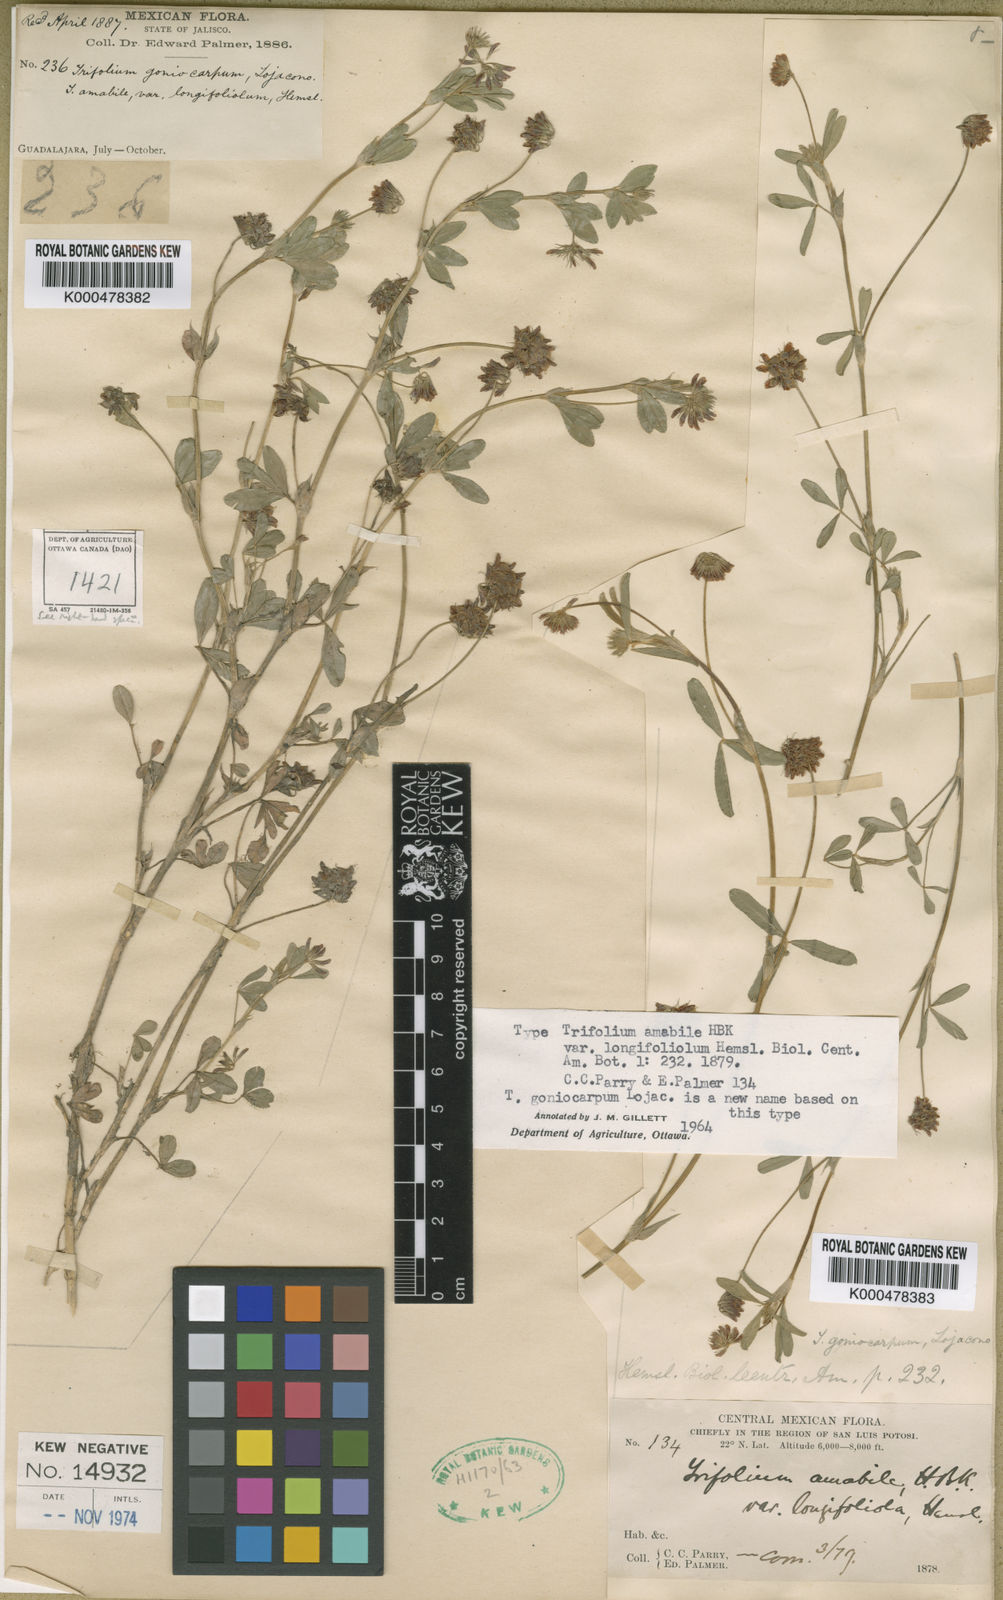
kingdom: Plantae
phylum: Tracheophyta
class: Magnoliopsida
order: Fabales
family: Fabaceae
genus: Trifolium
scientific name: Trifolium rhombeum
